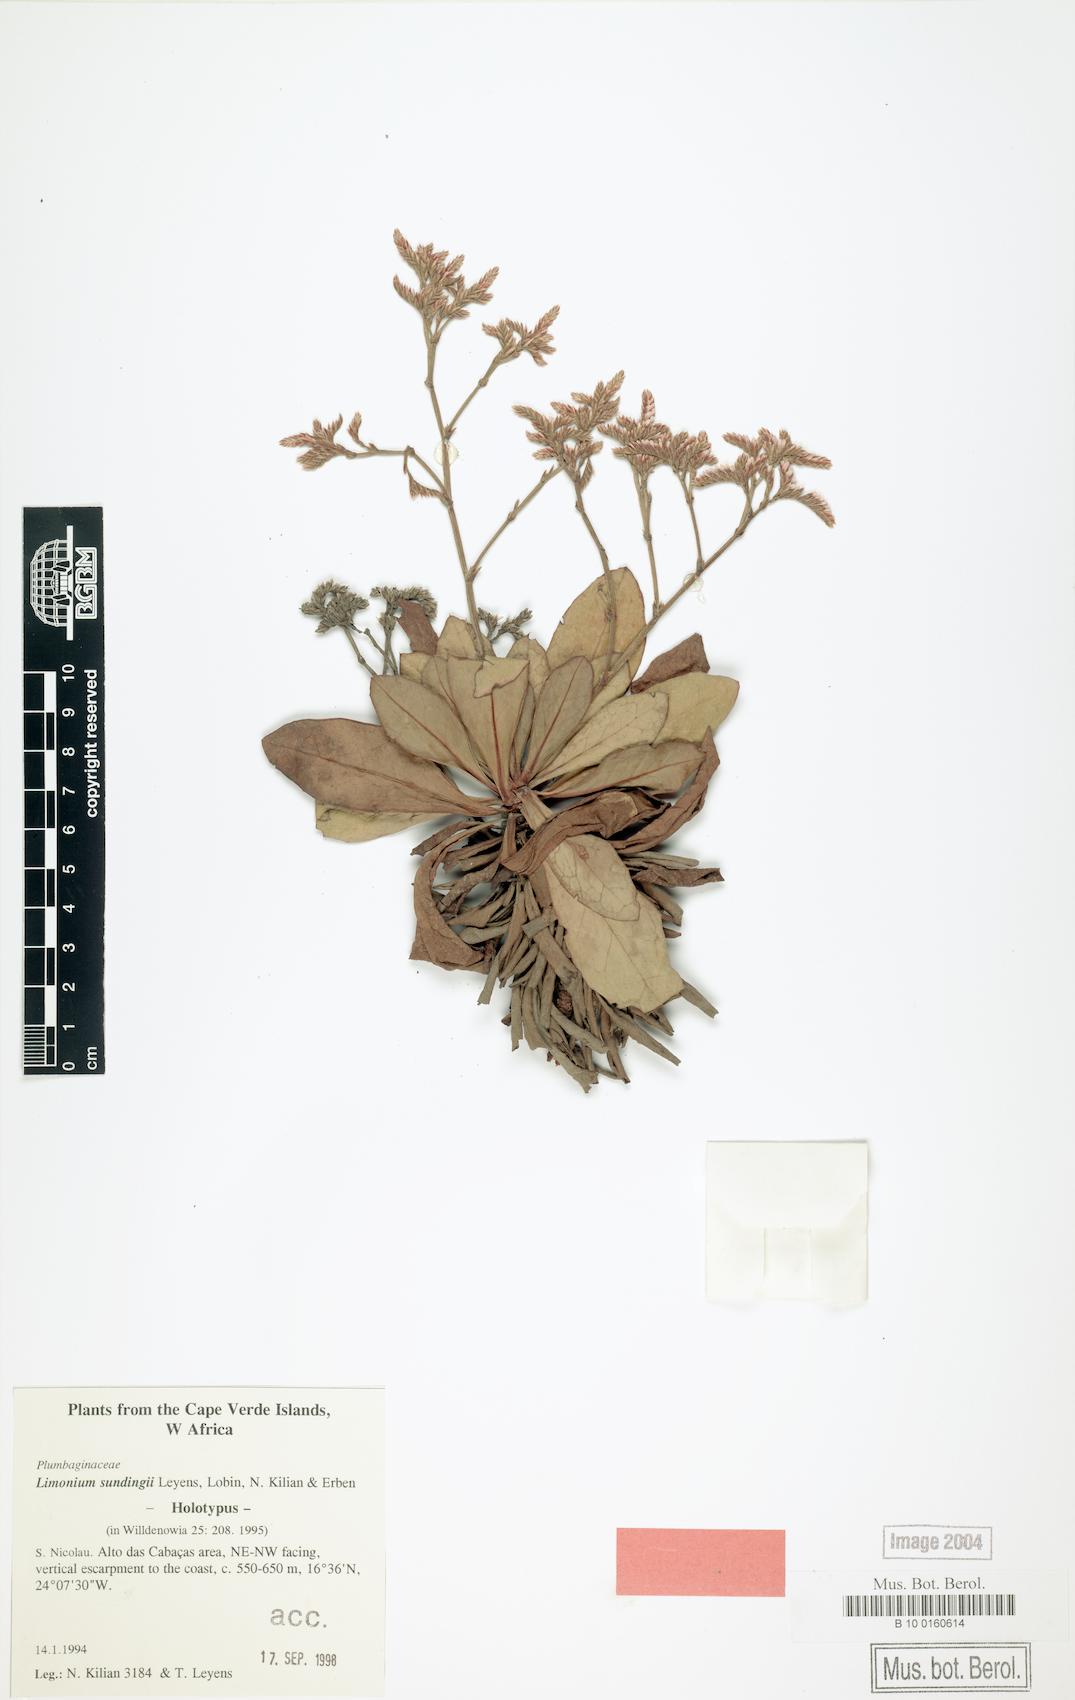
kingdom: Plantae
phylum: Tracheophyta
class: Magnoliopsida
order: Caryophyllales
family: Plumbaginaceae
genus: Limonium
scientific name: Limonium sundingii
